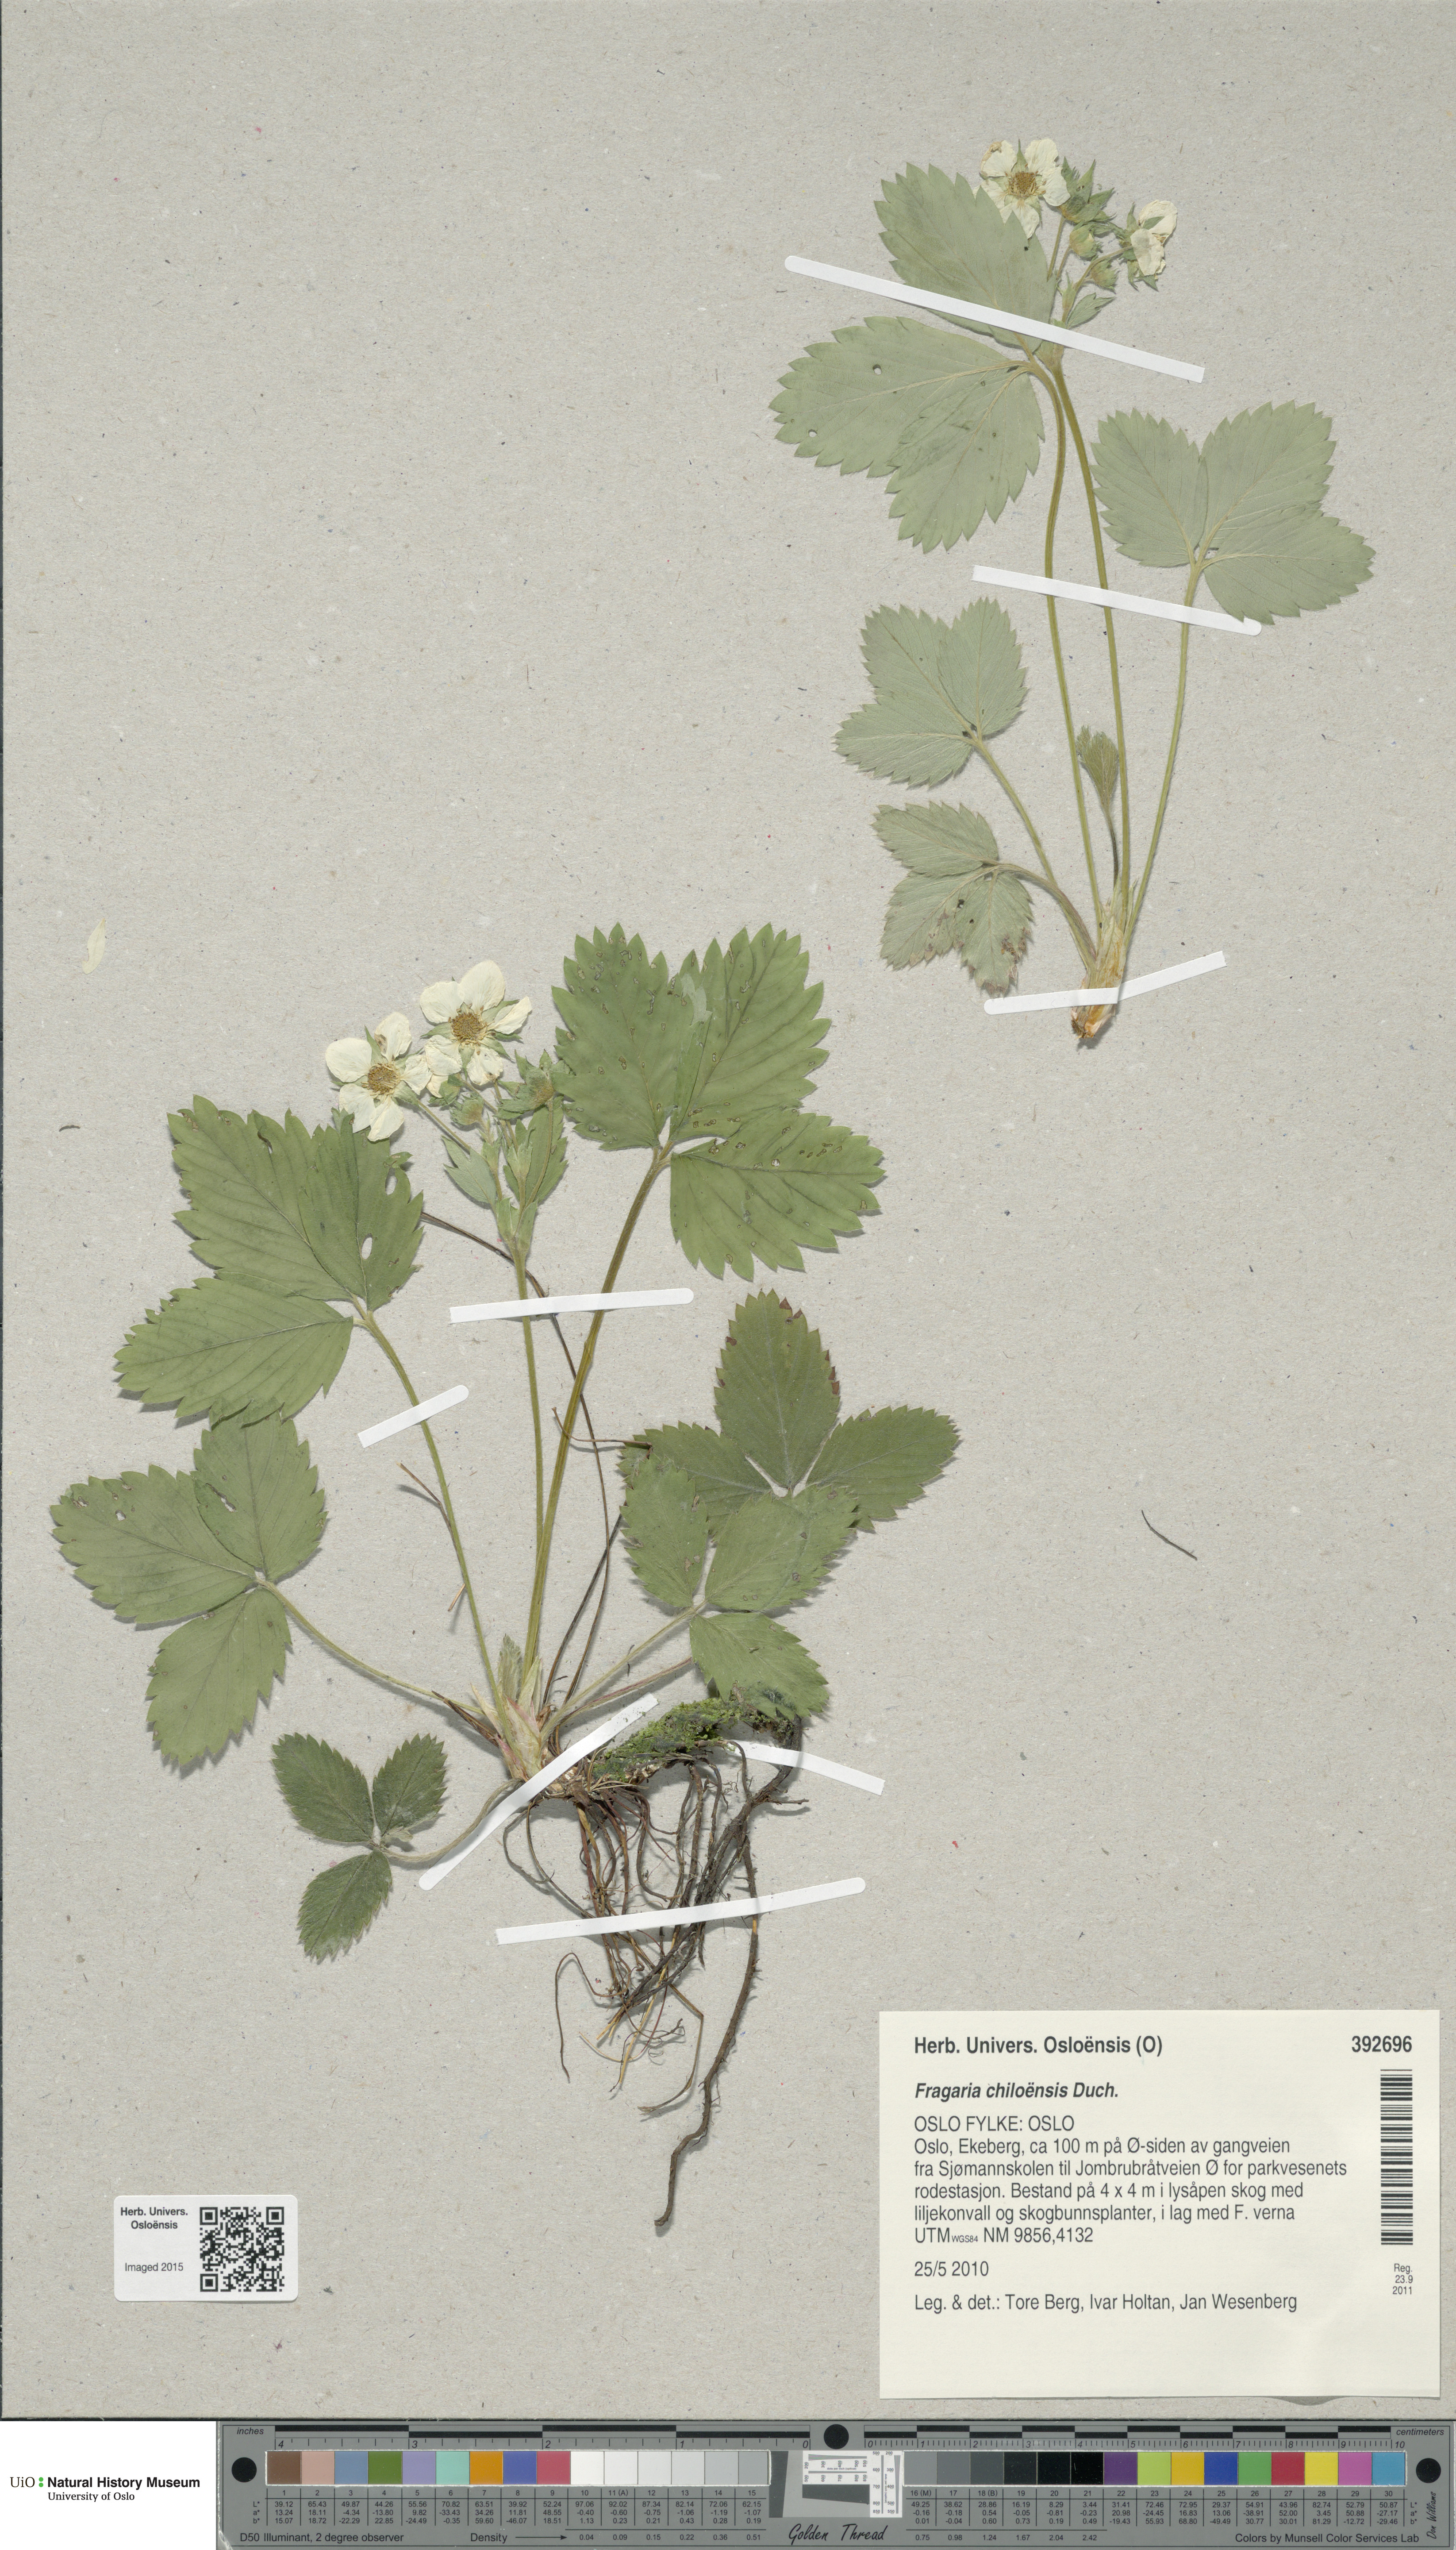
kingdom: Plantae
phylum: Tracheophyta
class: Magnoliopsida
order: Rosales
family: Rosaceae
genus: Fragaria
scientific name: Fragaria chiloensis
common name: Beach strawberry
